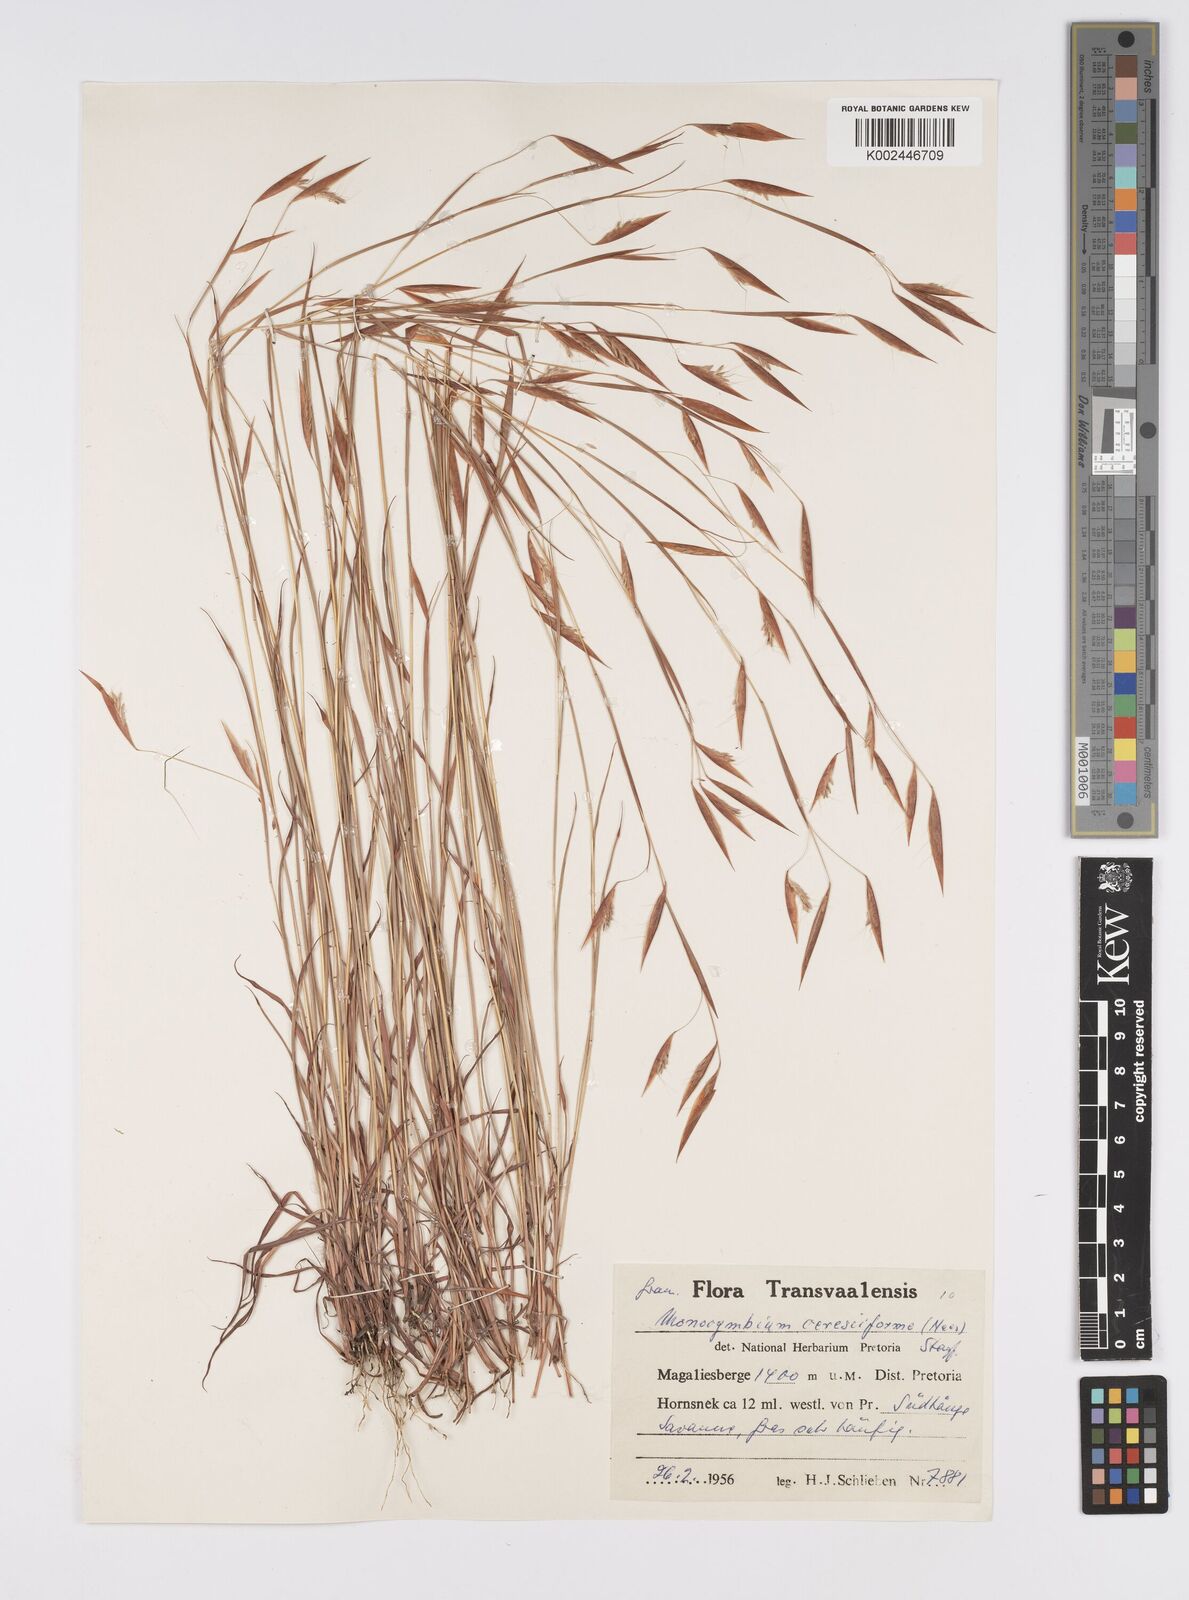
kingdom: Plantae
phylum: Tracheophyta
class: Liliopsida
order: Poales
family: Poaceae
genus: Monocymbium
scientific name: Monocymbium ceresiiforme
